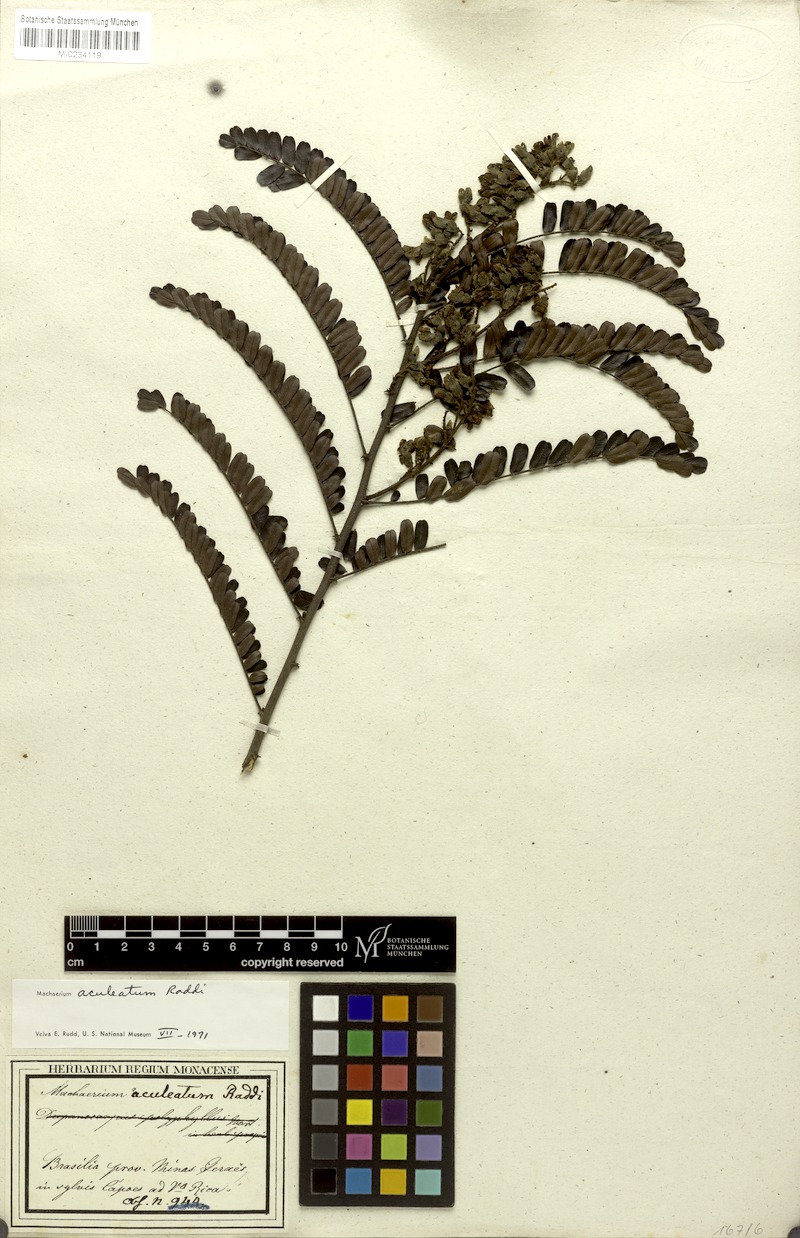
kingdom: Plantae
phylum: Tracheophyta
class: Magnoliopsida
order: Fabales
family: Fabaceae
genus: Machaerium
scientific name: Machaerium aculeatum
